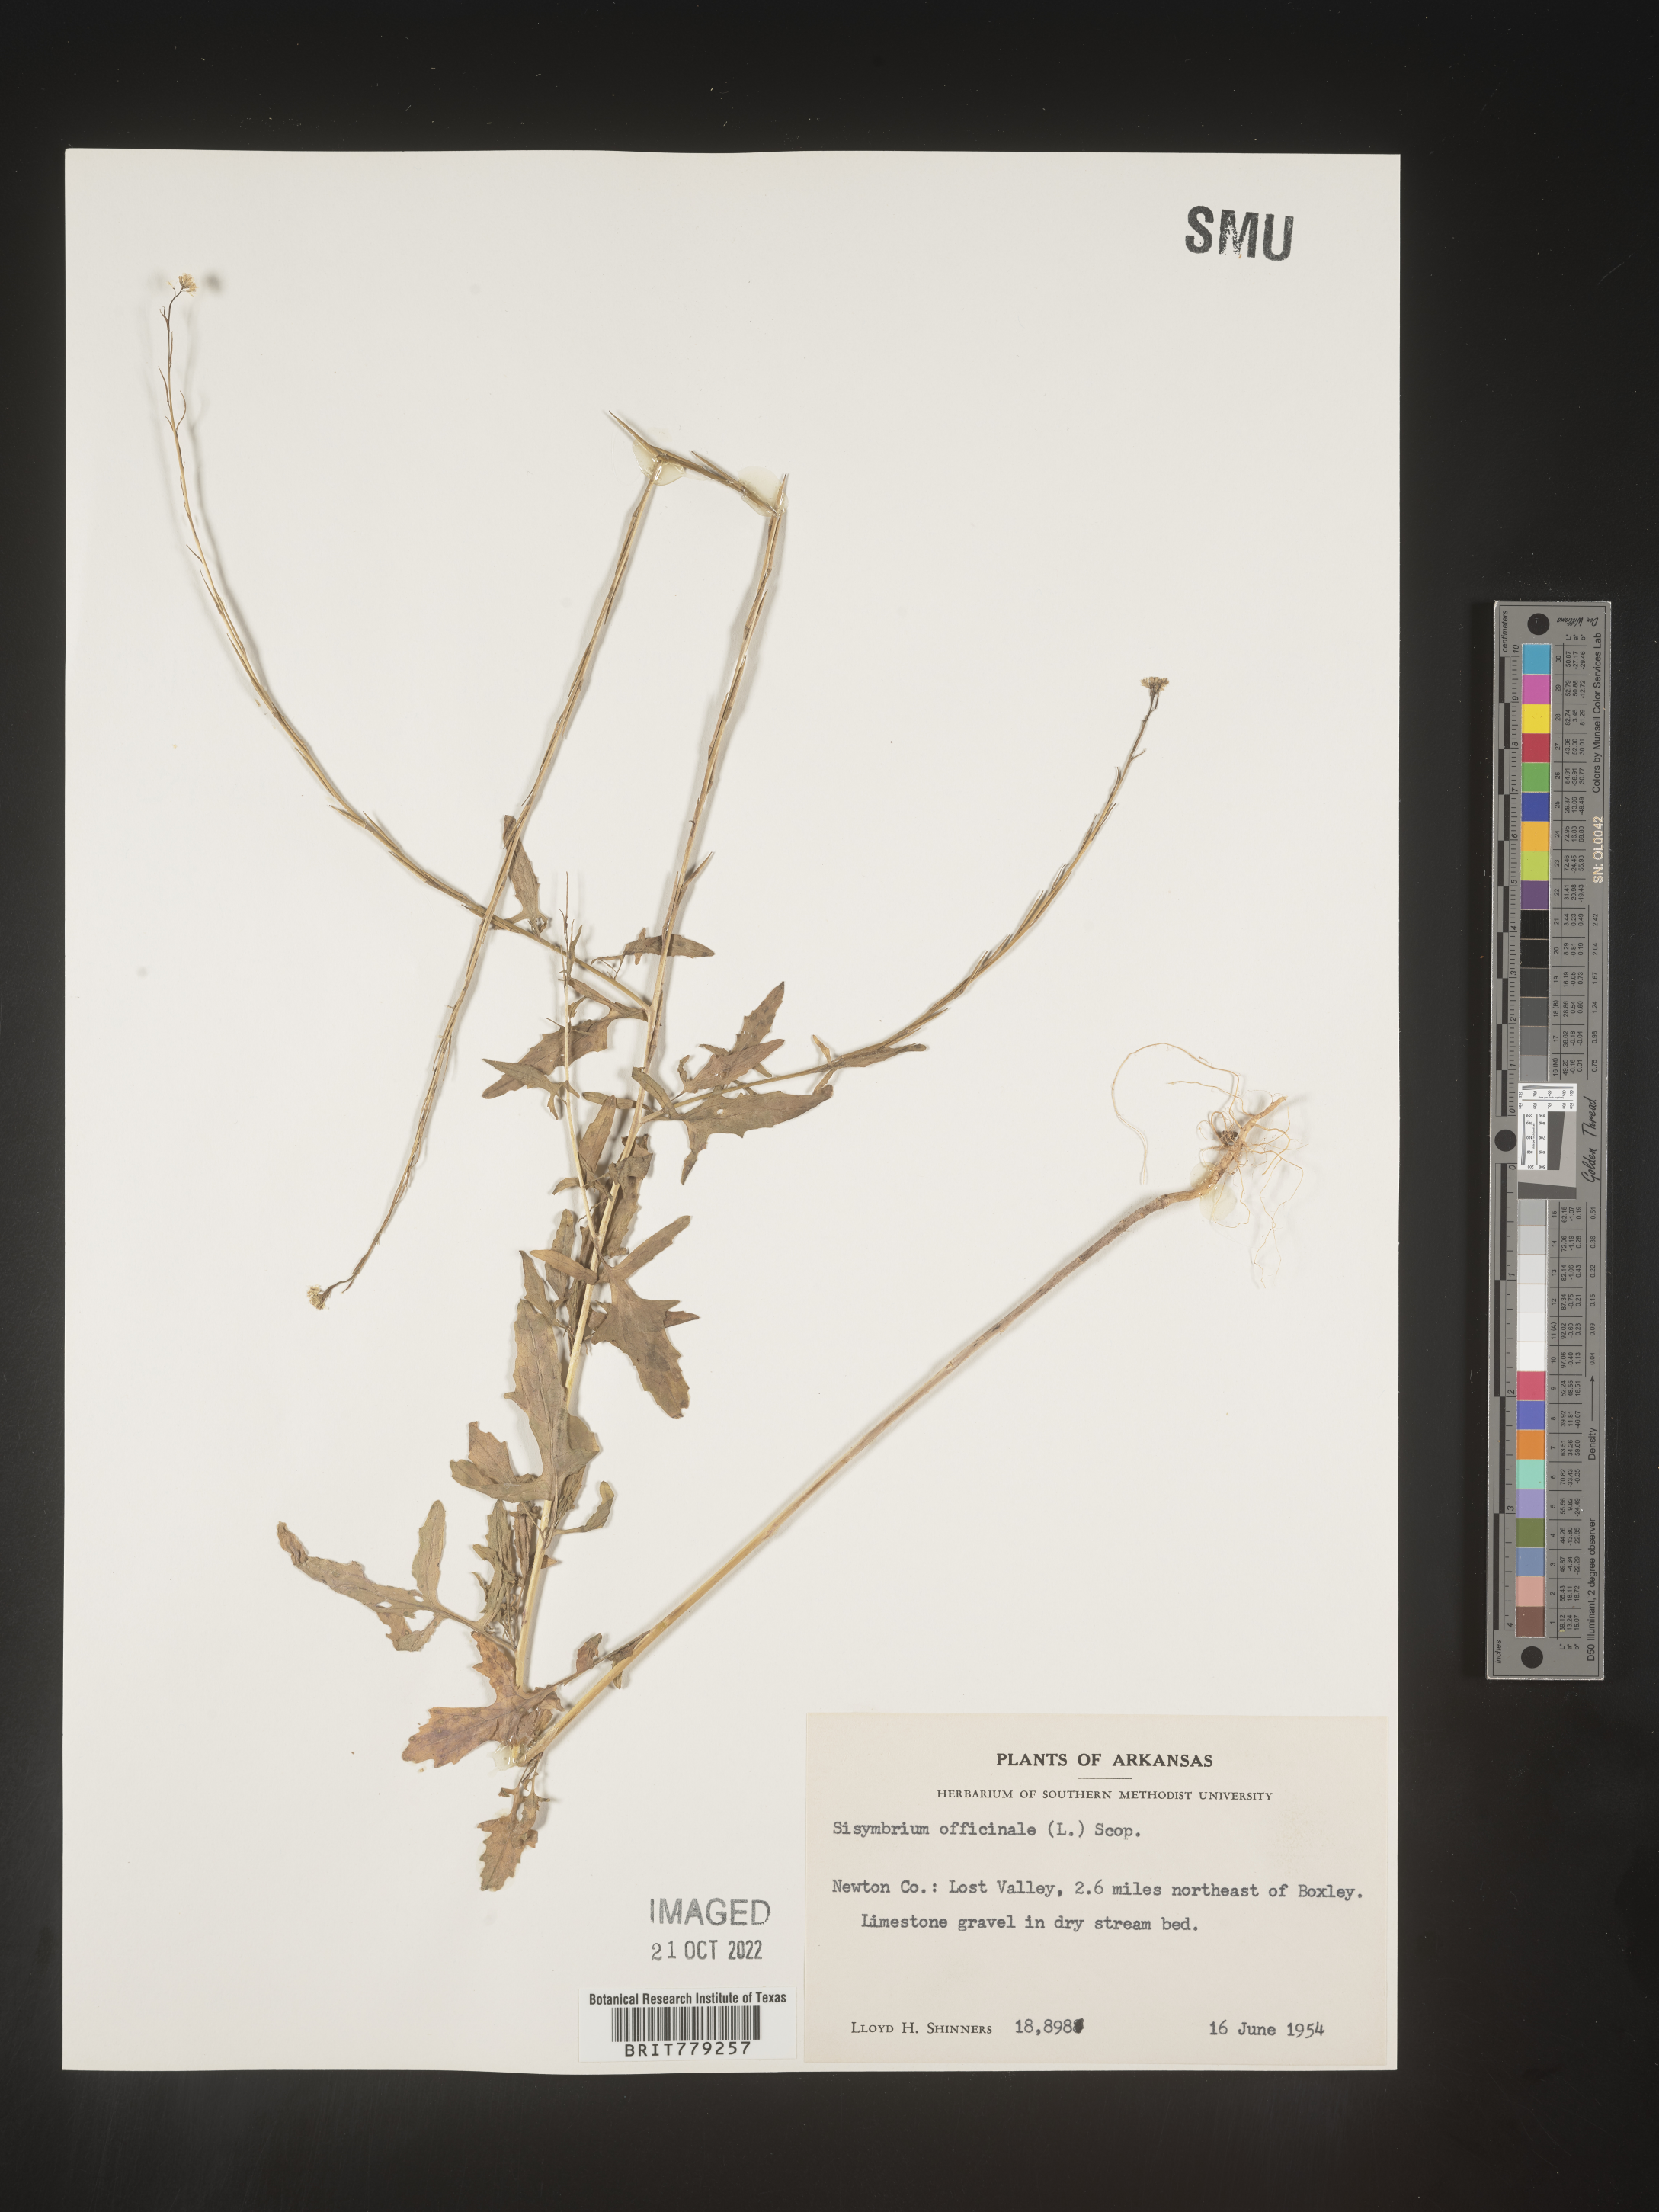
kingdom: Plantae
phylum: Tracheophyta
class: Magnoliopsida
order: Brassicales
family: Brassicaceae
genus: Sisymbrium
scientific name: Sisymbrium officinale
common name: Hedge mustard
